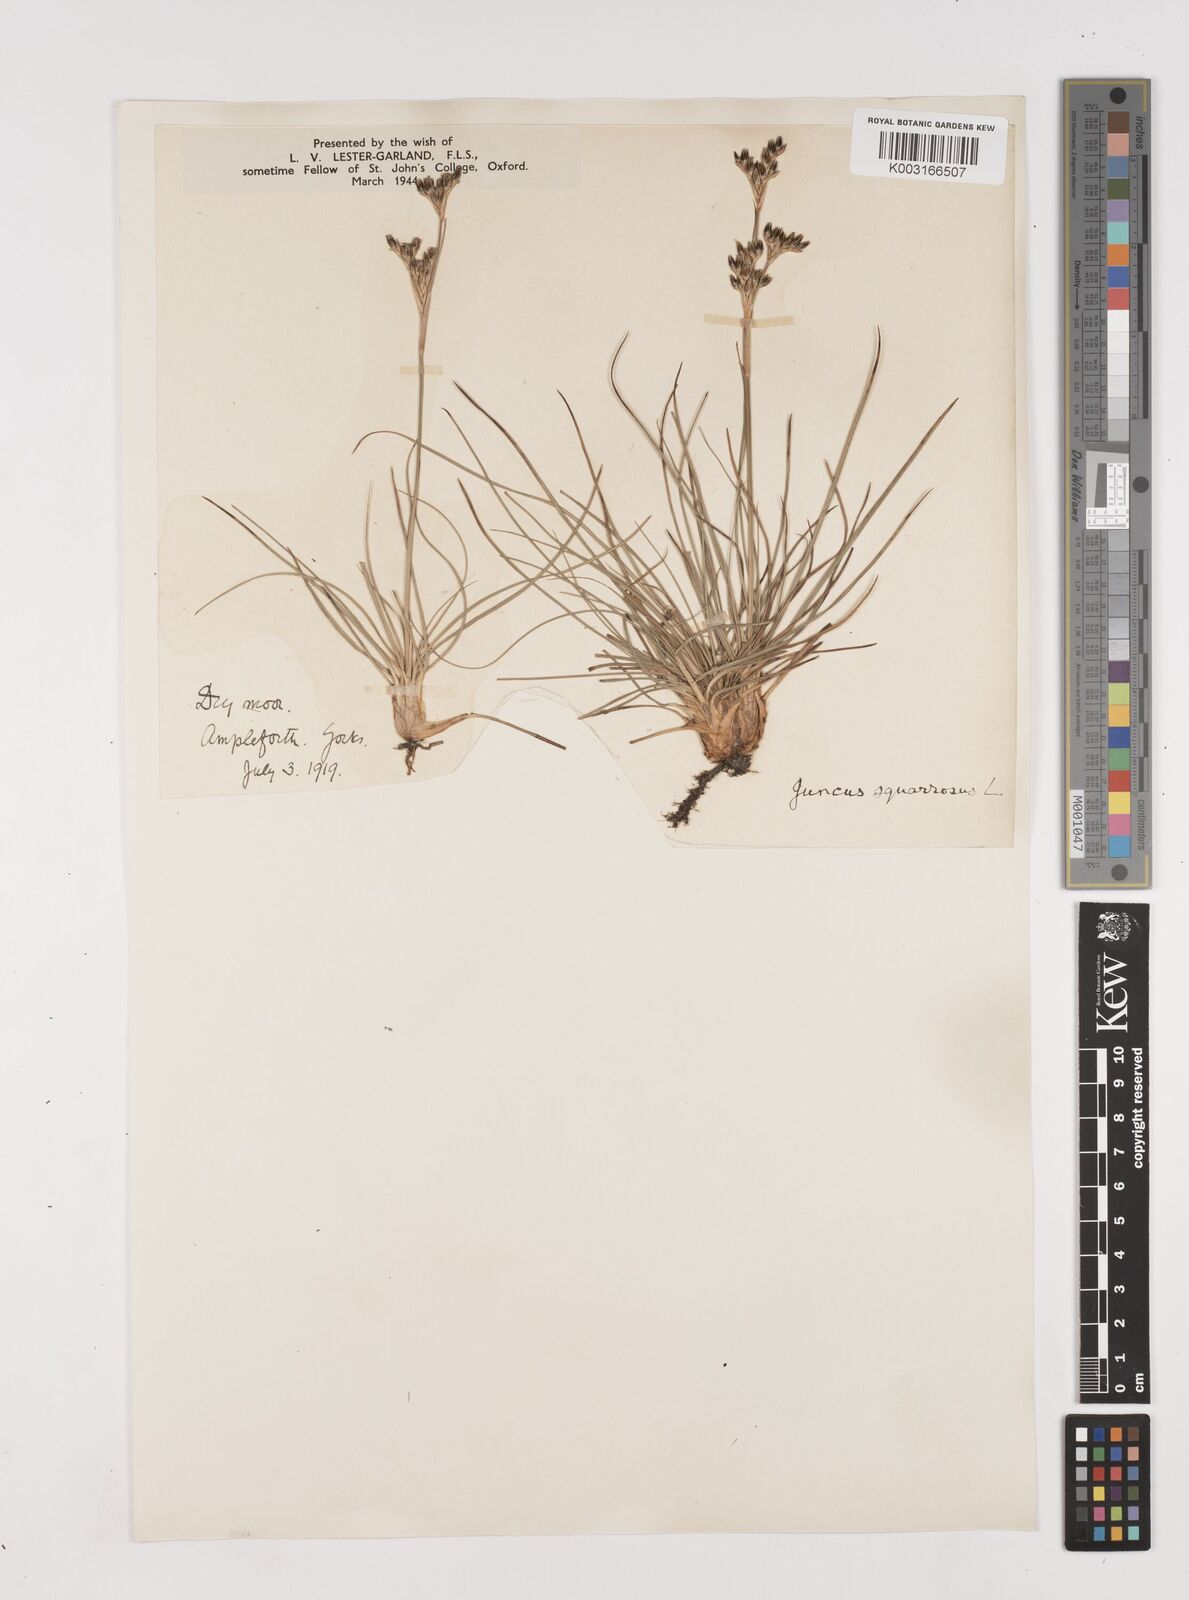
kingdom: Plantae
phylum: Tracheophyta
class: Liliopsida
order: Poales
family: Juncaceae
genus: Juncus
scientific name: Juncus squarrosus
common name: Heath rush
